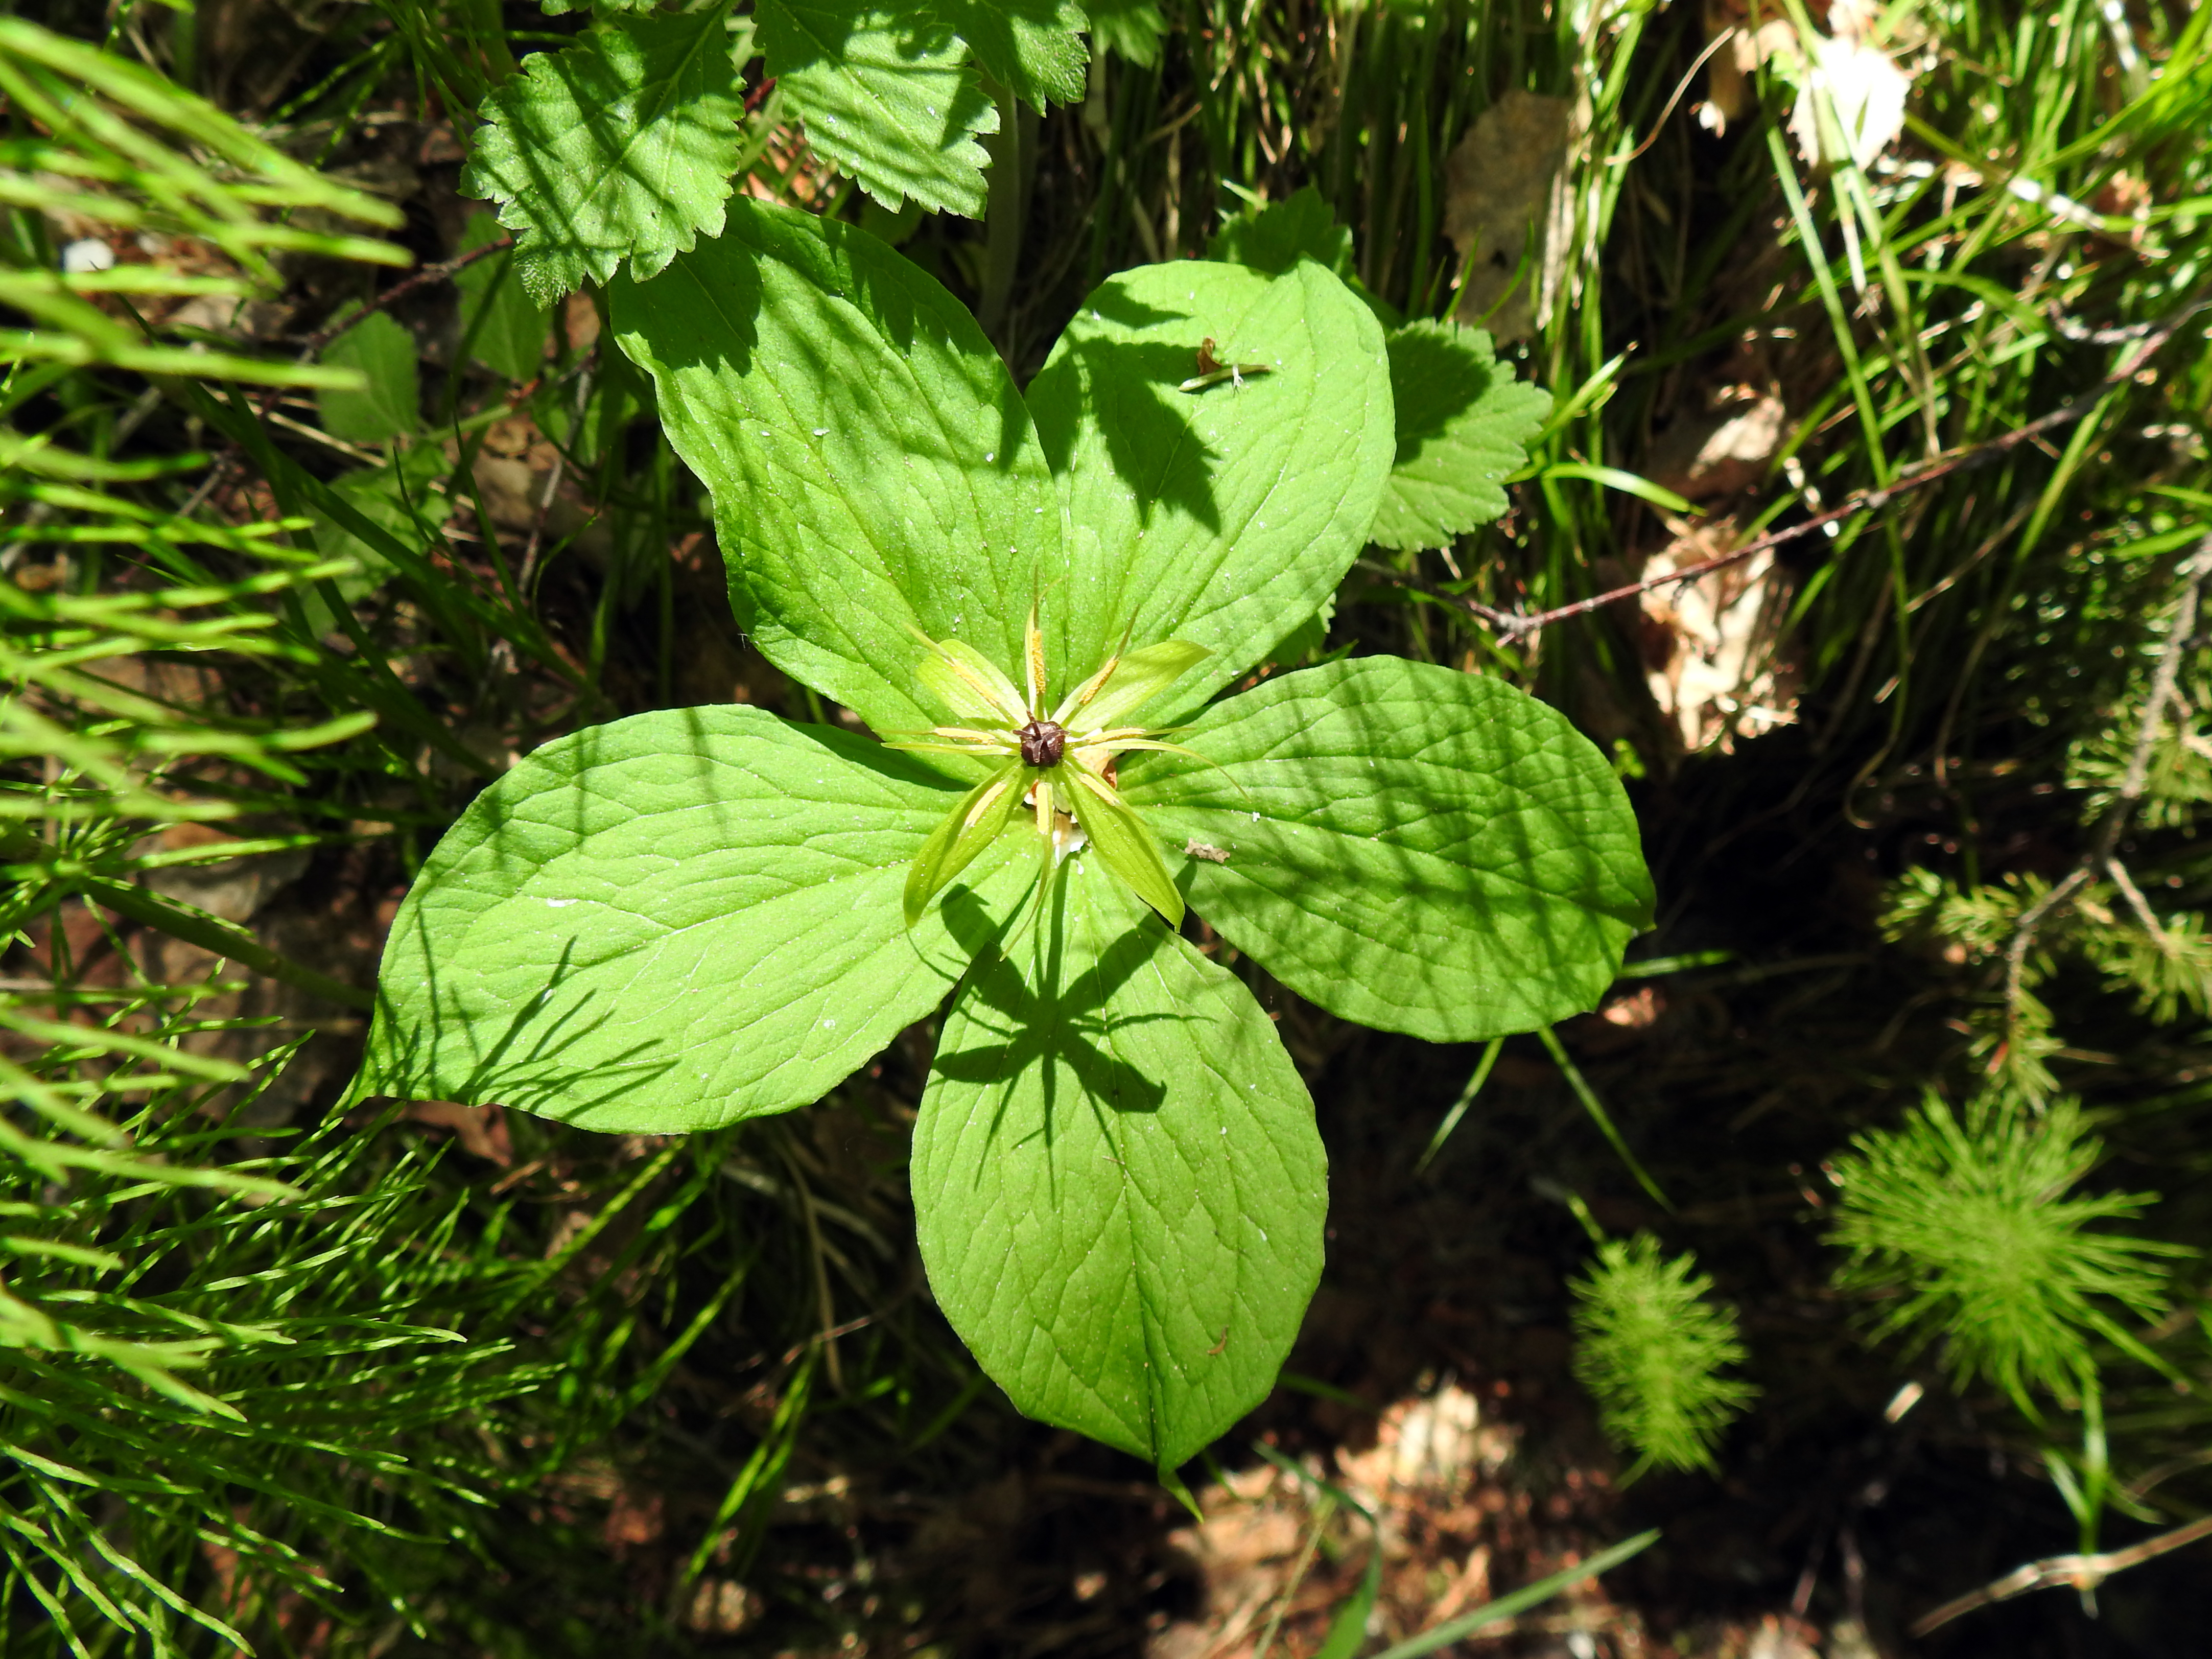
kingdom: Plantae
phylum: Tracheophyta
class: Liliopsida
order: Liliales
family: Melanthiaceae
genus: Paris
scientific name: Paris quadrifolia
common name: Herb-paris
